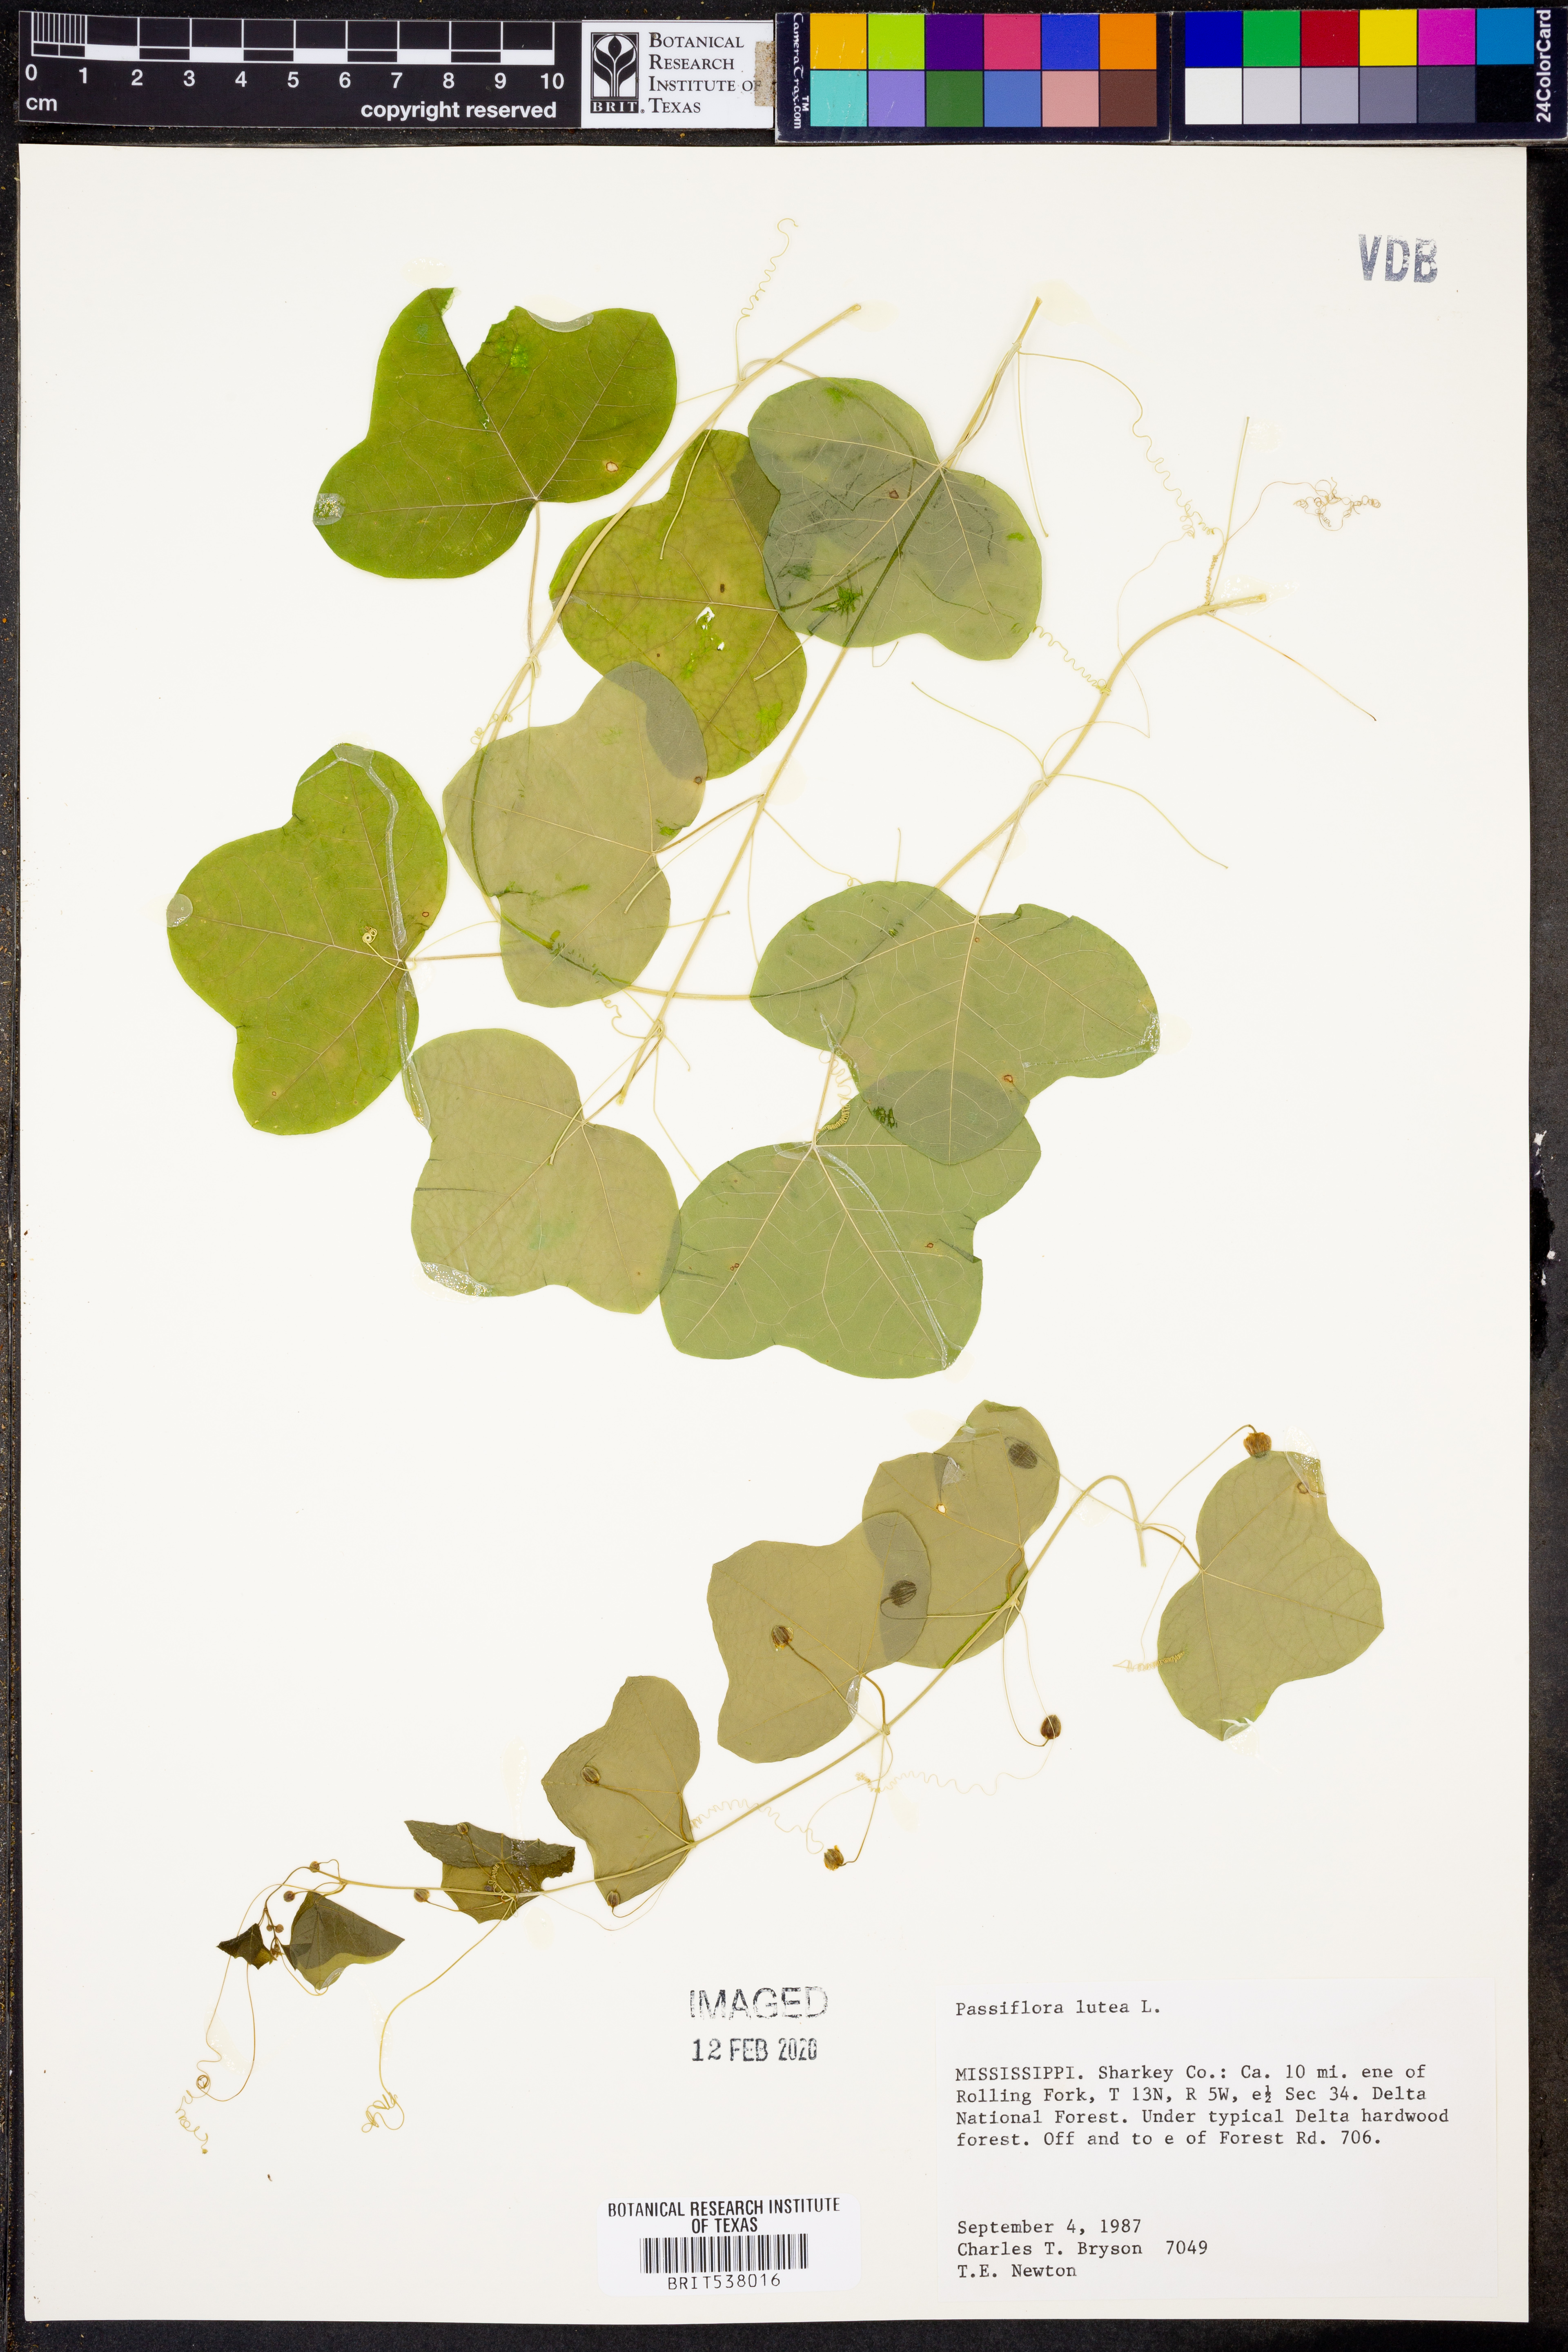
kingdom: Plantae
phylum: Tracheophyta
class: Magnoliopsida
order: Malpighiales
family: Passifloraceae
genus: Passiflora
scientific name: Passiflora lutea
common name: Yellow passionflower
